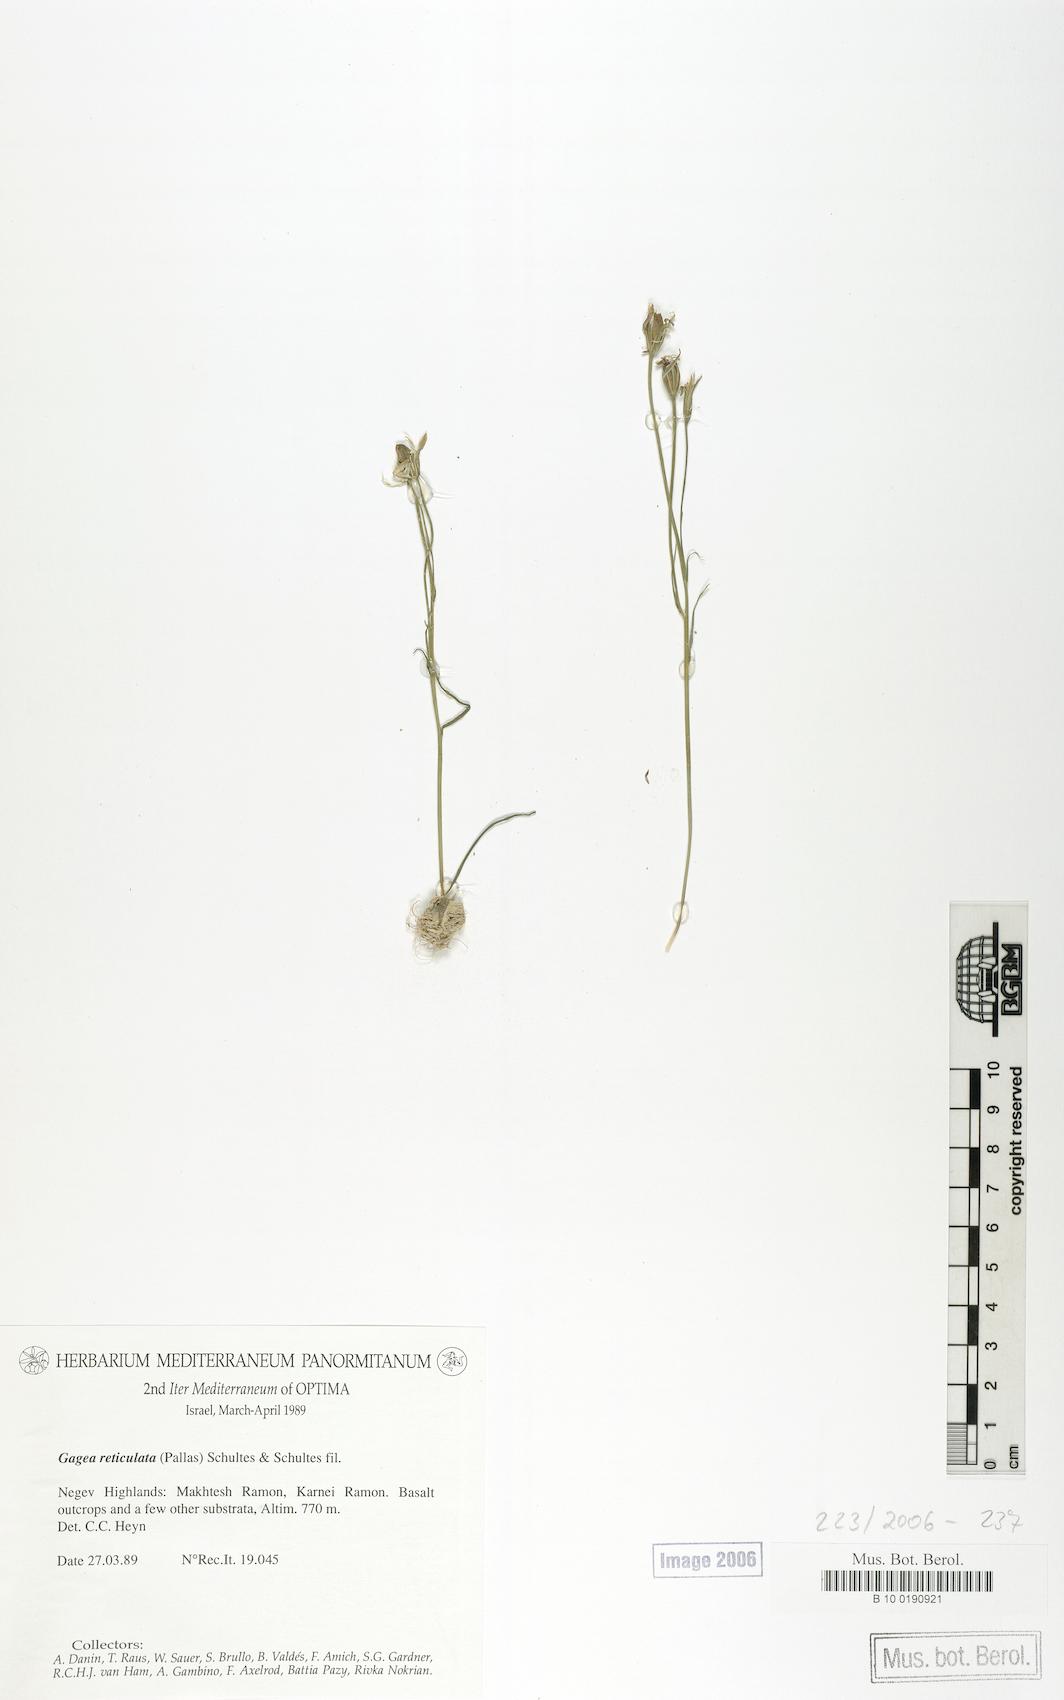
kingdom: Plantae
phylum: Tracheophyta
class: Liliopsida
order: Liliales
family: Liliaceae
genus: Gagea
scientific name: Gagea reticulata
